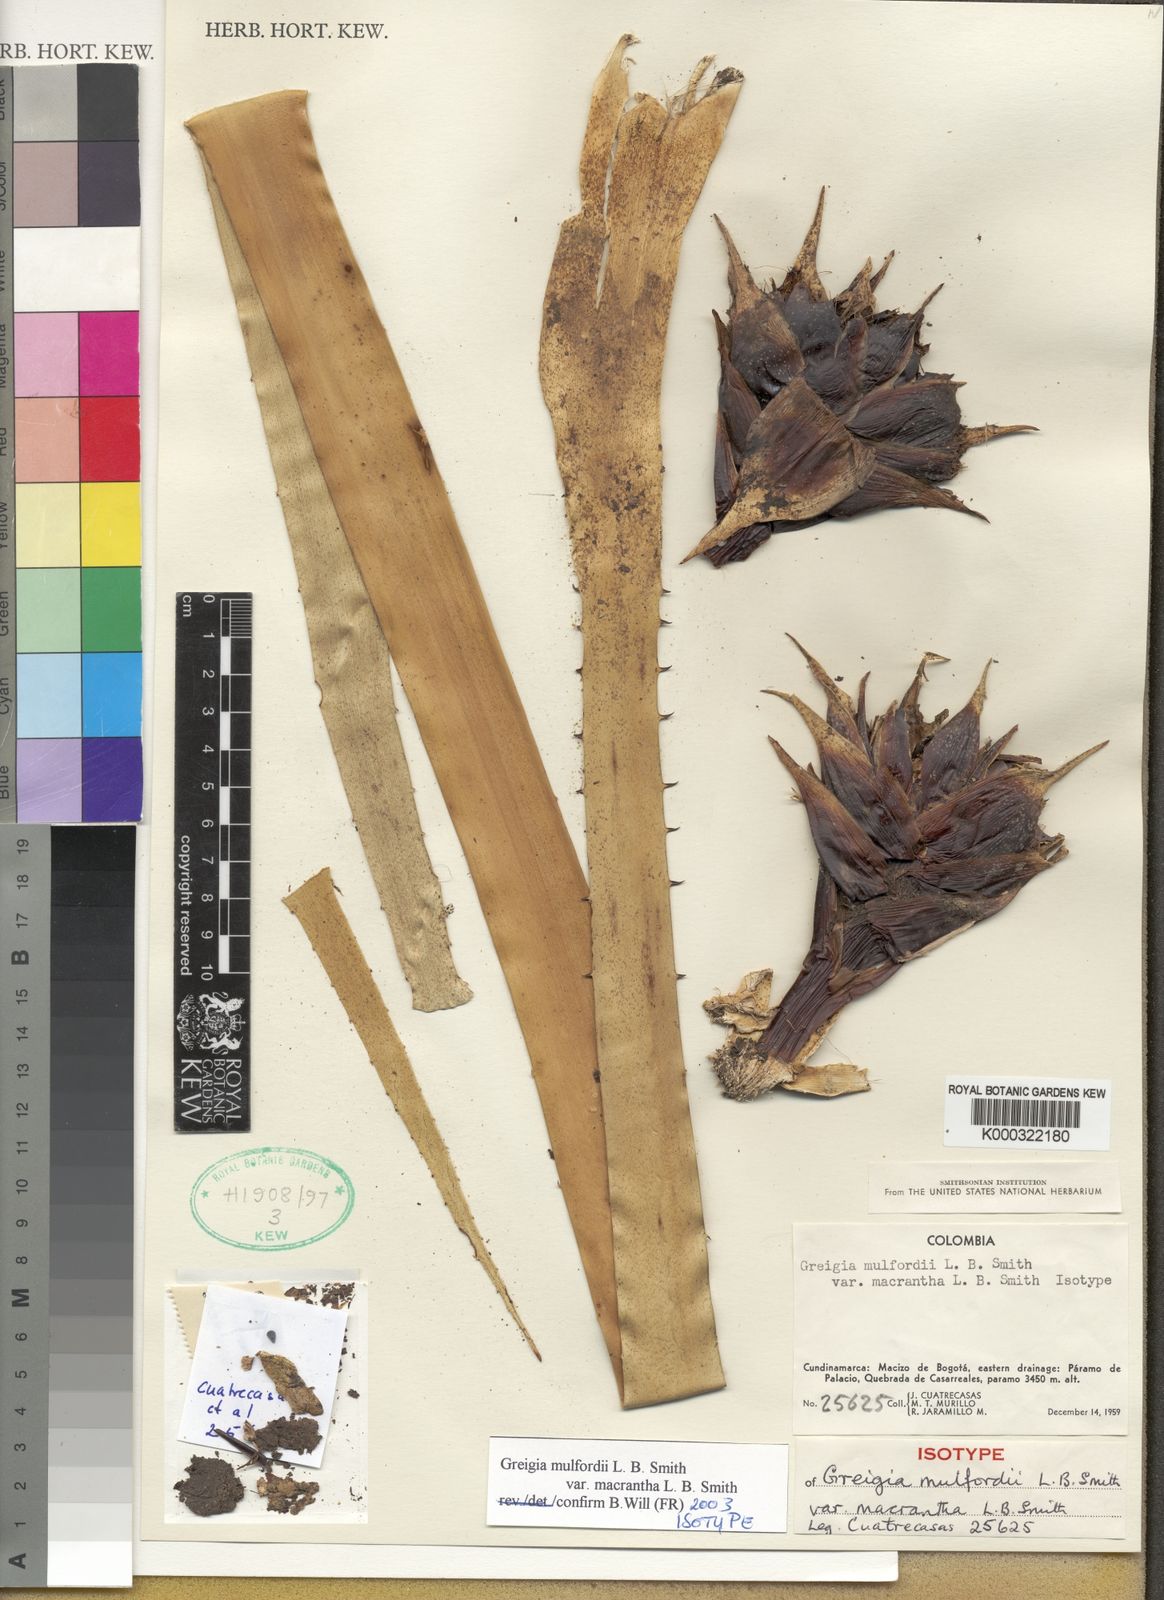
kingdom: Plantae
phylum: Tracheophyta
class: Liliopsida
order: Poales
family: Bromeliaceae
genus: Greigia
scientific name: Greigia mulfordii
